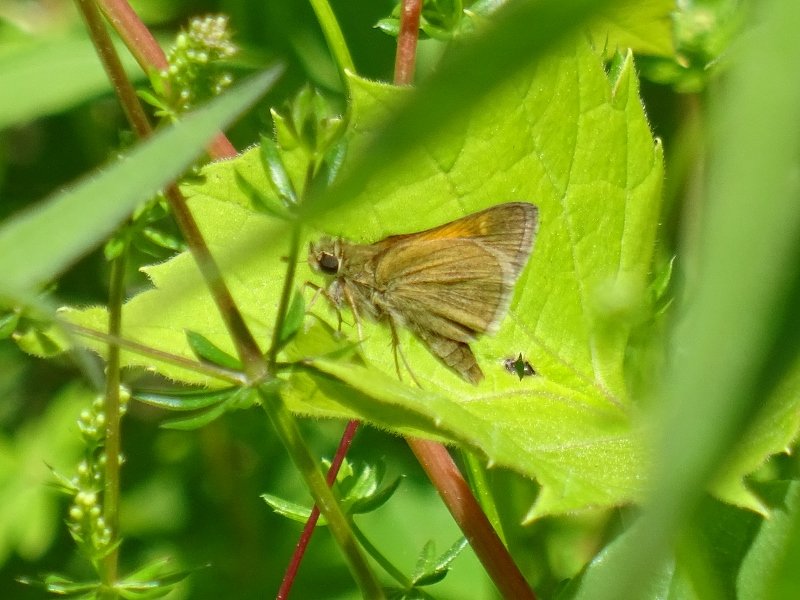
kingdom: Animalia
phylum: Arthropoda
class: Insecta
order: Lepidoptera
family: Hesperiidae
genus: Polites
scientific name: Polites themistocles
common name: Tawny-edged Skipper
